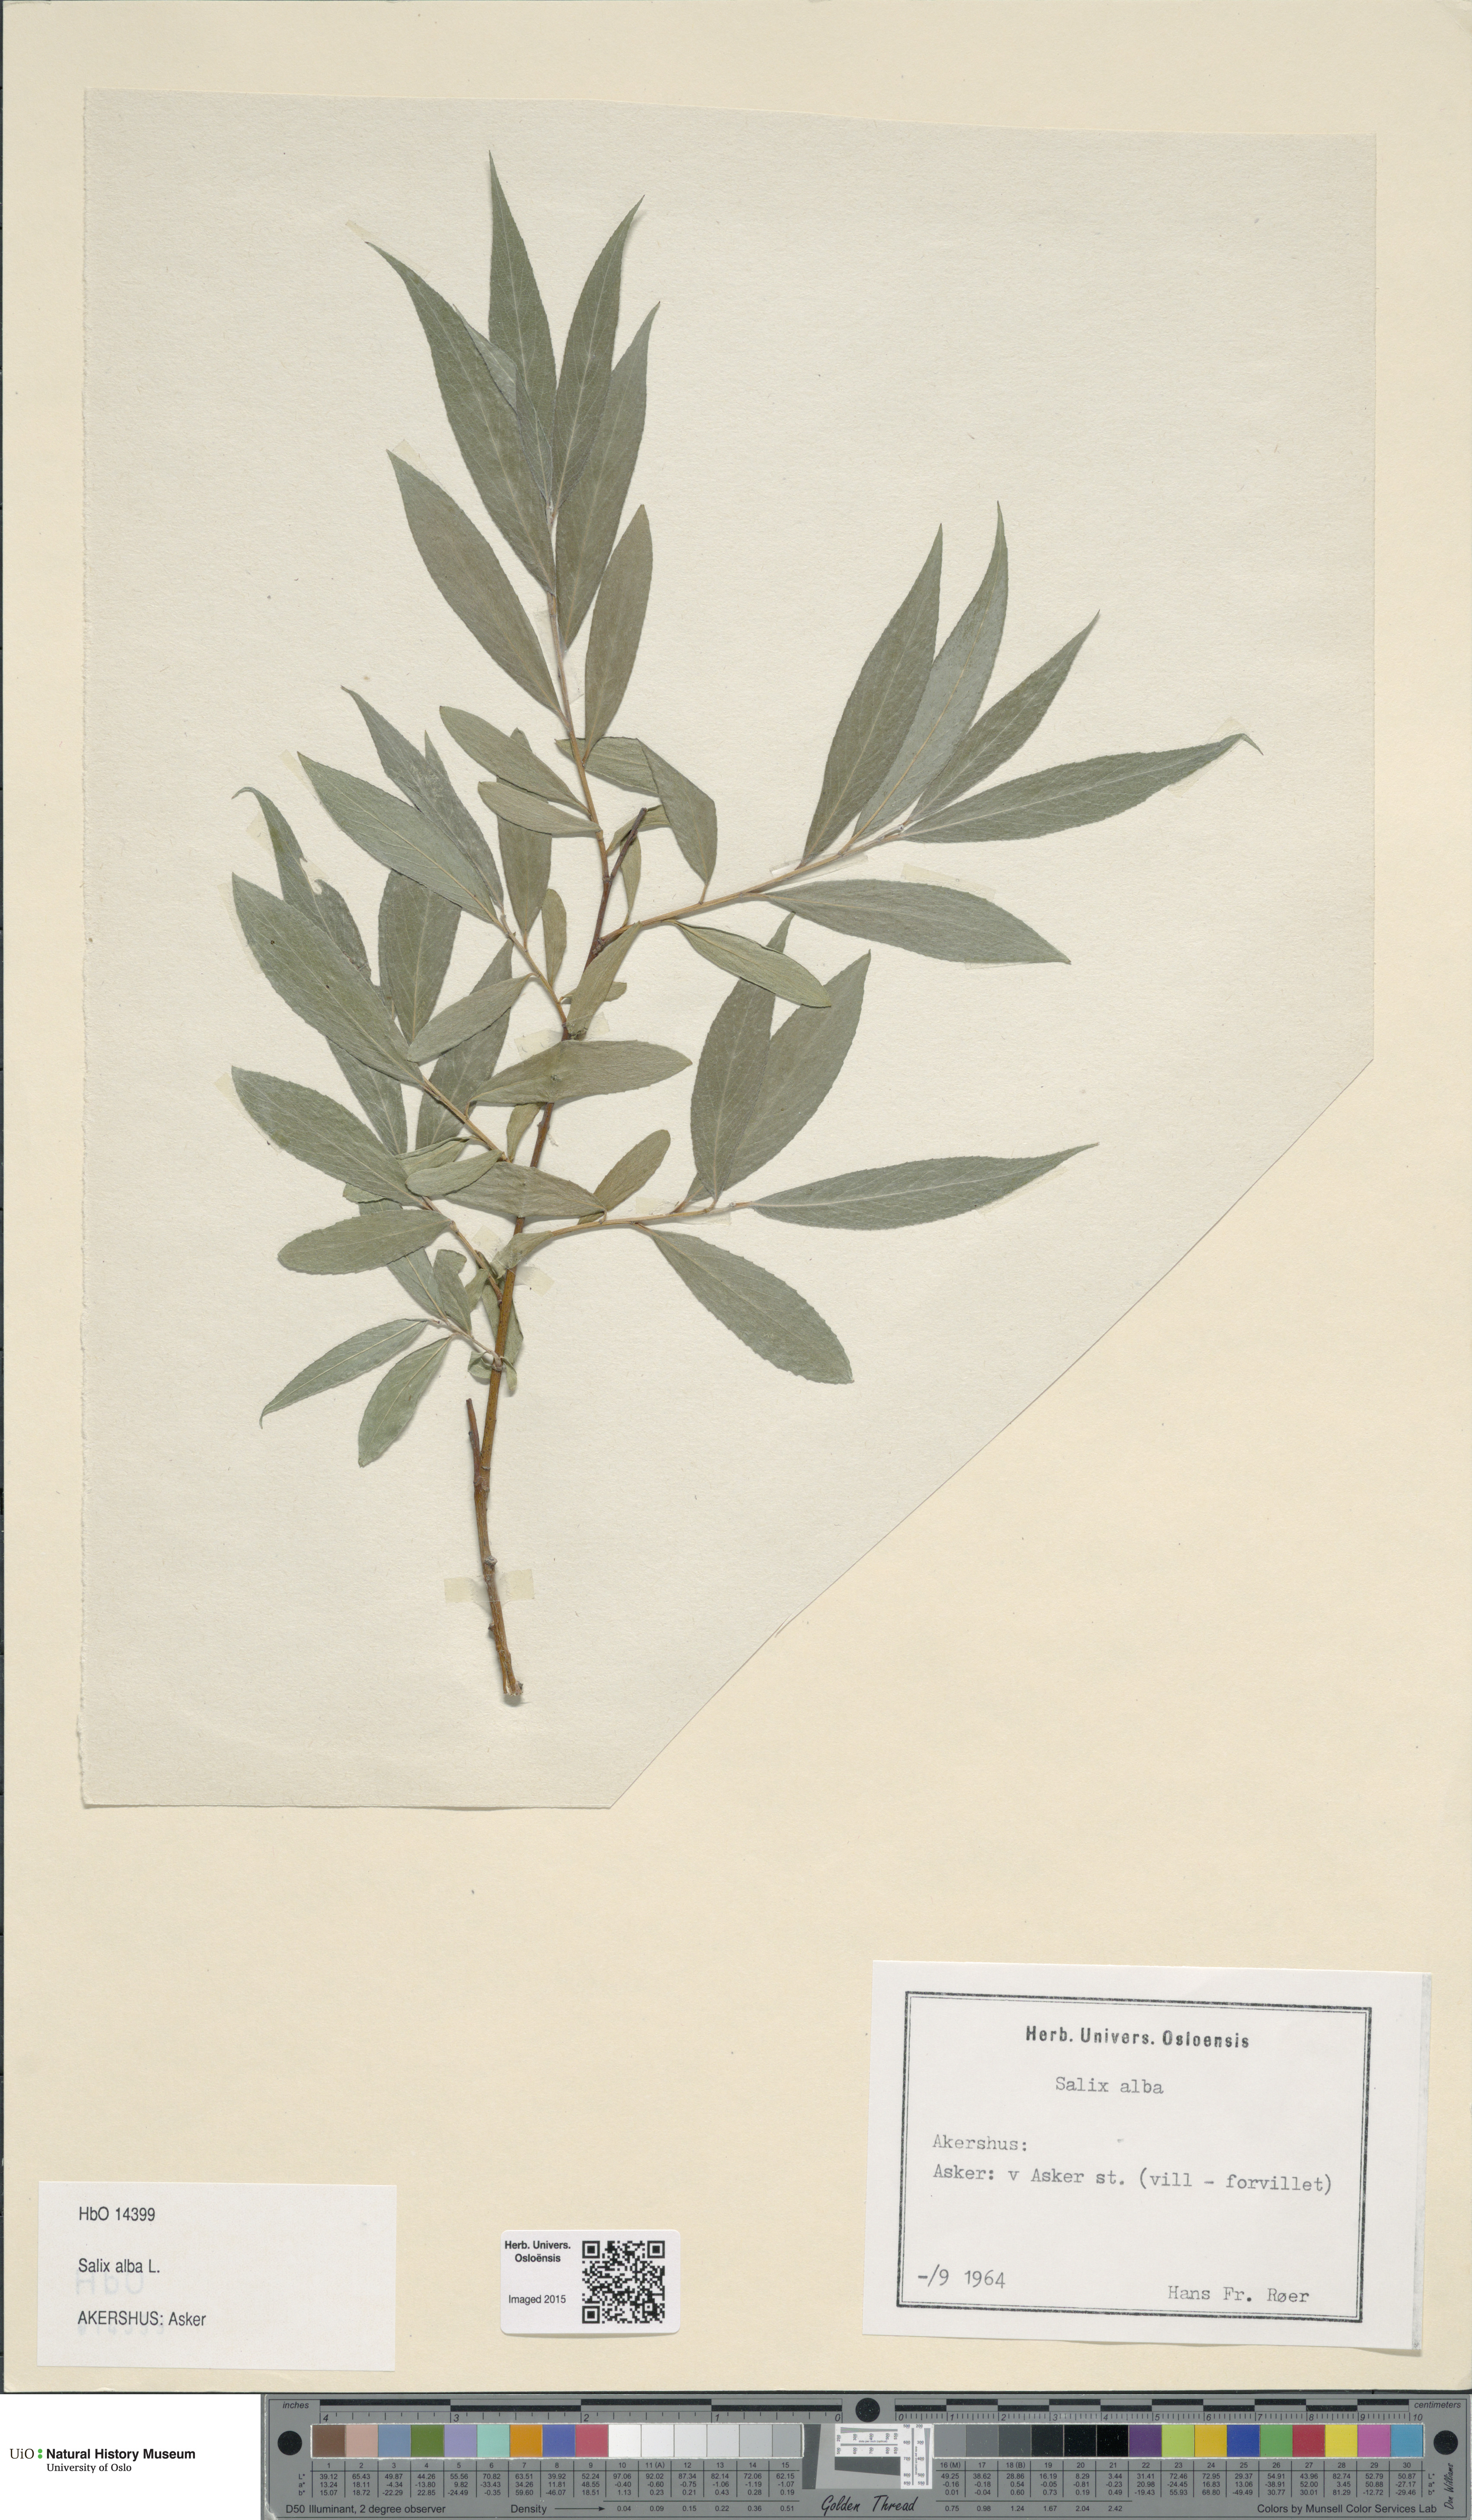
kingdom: Plantae
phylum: Tracheophyta
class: Magnoliopsida
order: Malpighiales
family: Salicaceae
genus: Salix
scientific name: Salix alba
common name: White willow
